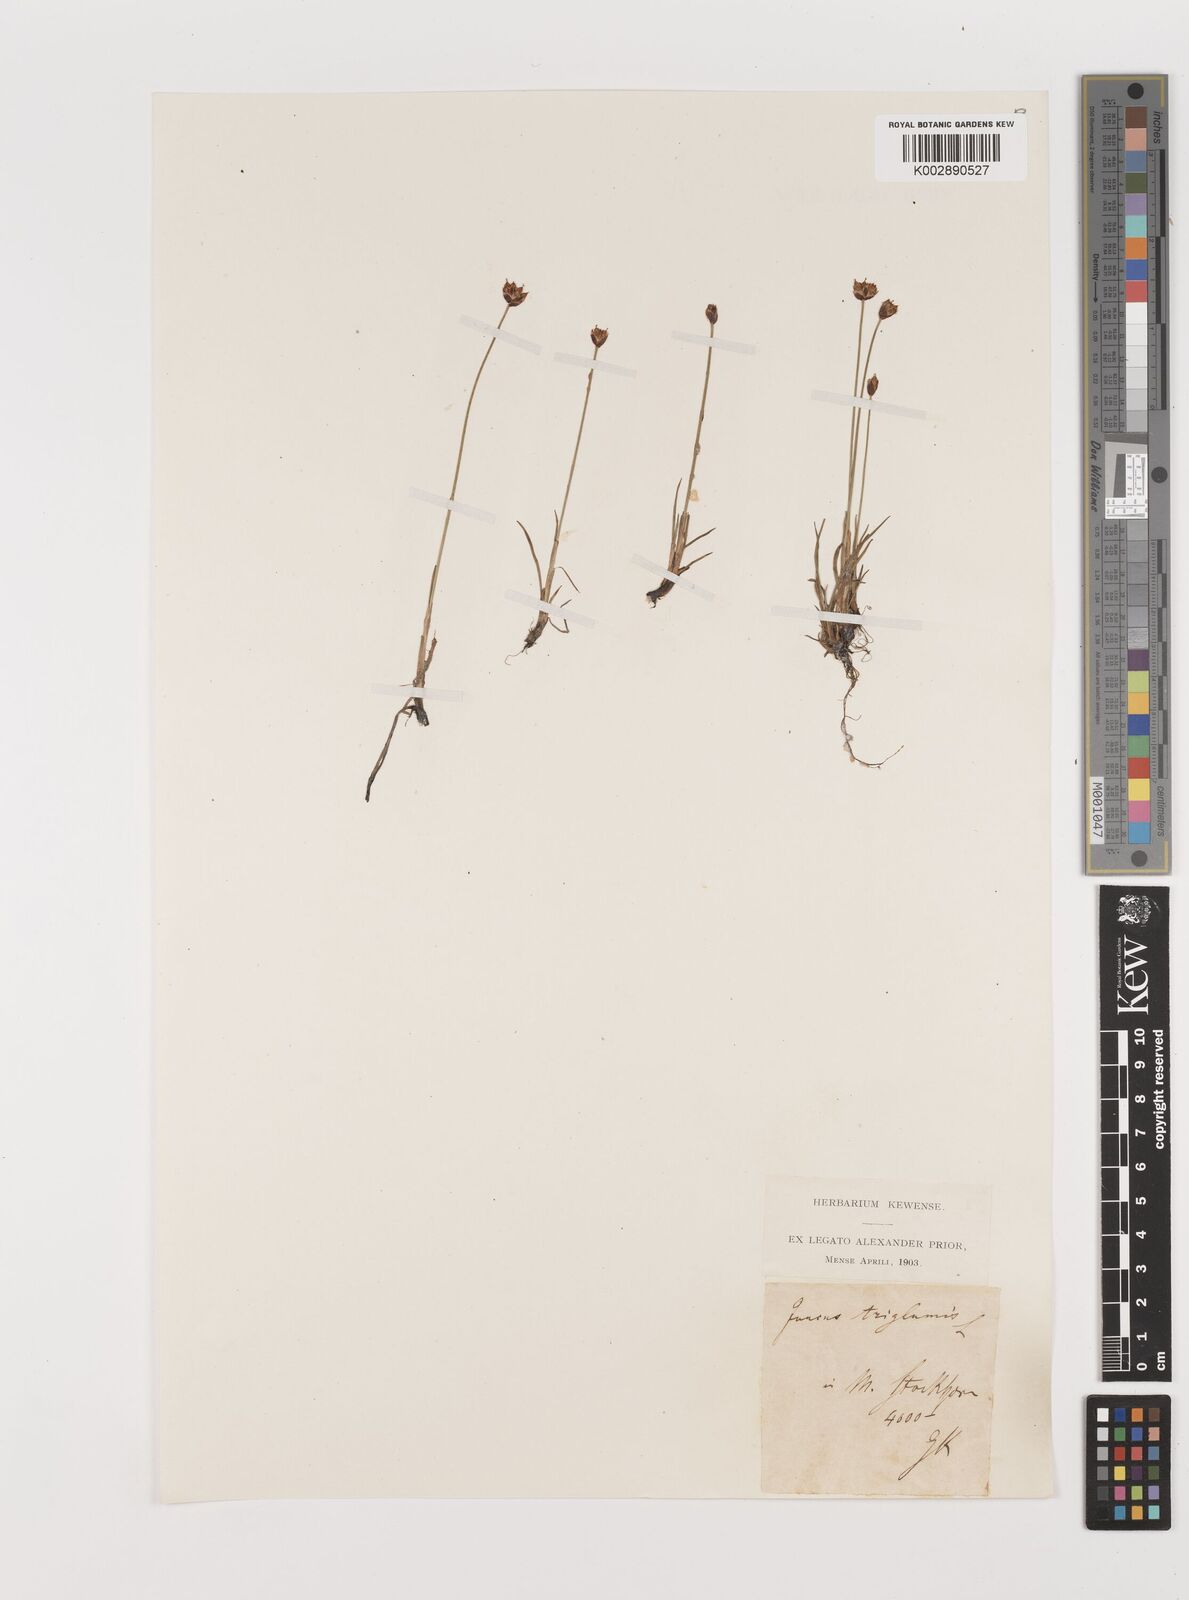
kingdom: Plantae
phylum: Tracheophyta
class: Liliopsida
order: Poales
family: Juncaceae
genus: Juncus
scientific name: Juncus triglumis
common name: Three-flowered rush
